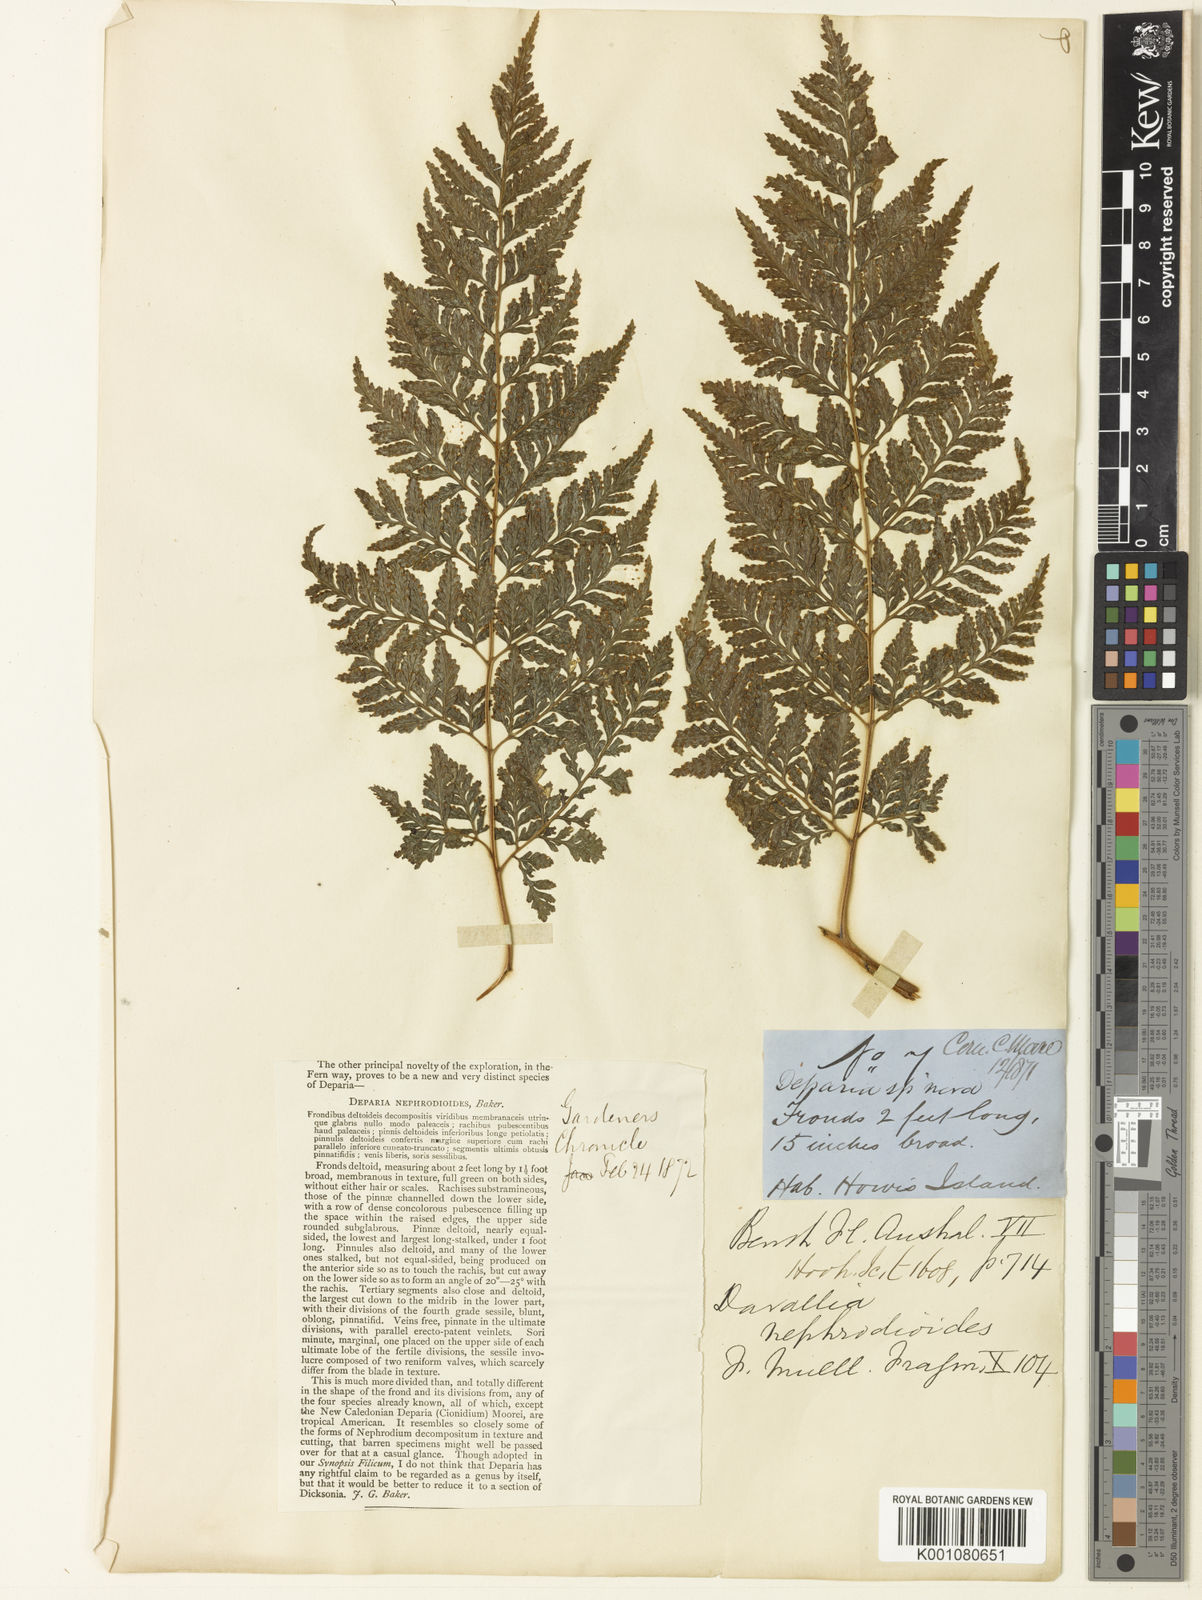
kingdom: Plantae
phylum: Tracheophyta
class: Polypodiopsida
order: Polypodiales
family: Dryopteridaceae
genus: Lastreopsis
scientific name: Lastreopsis nephrodioides
